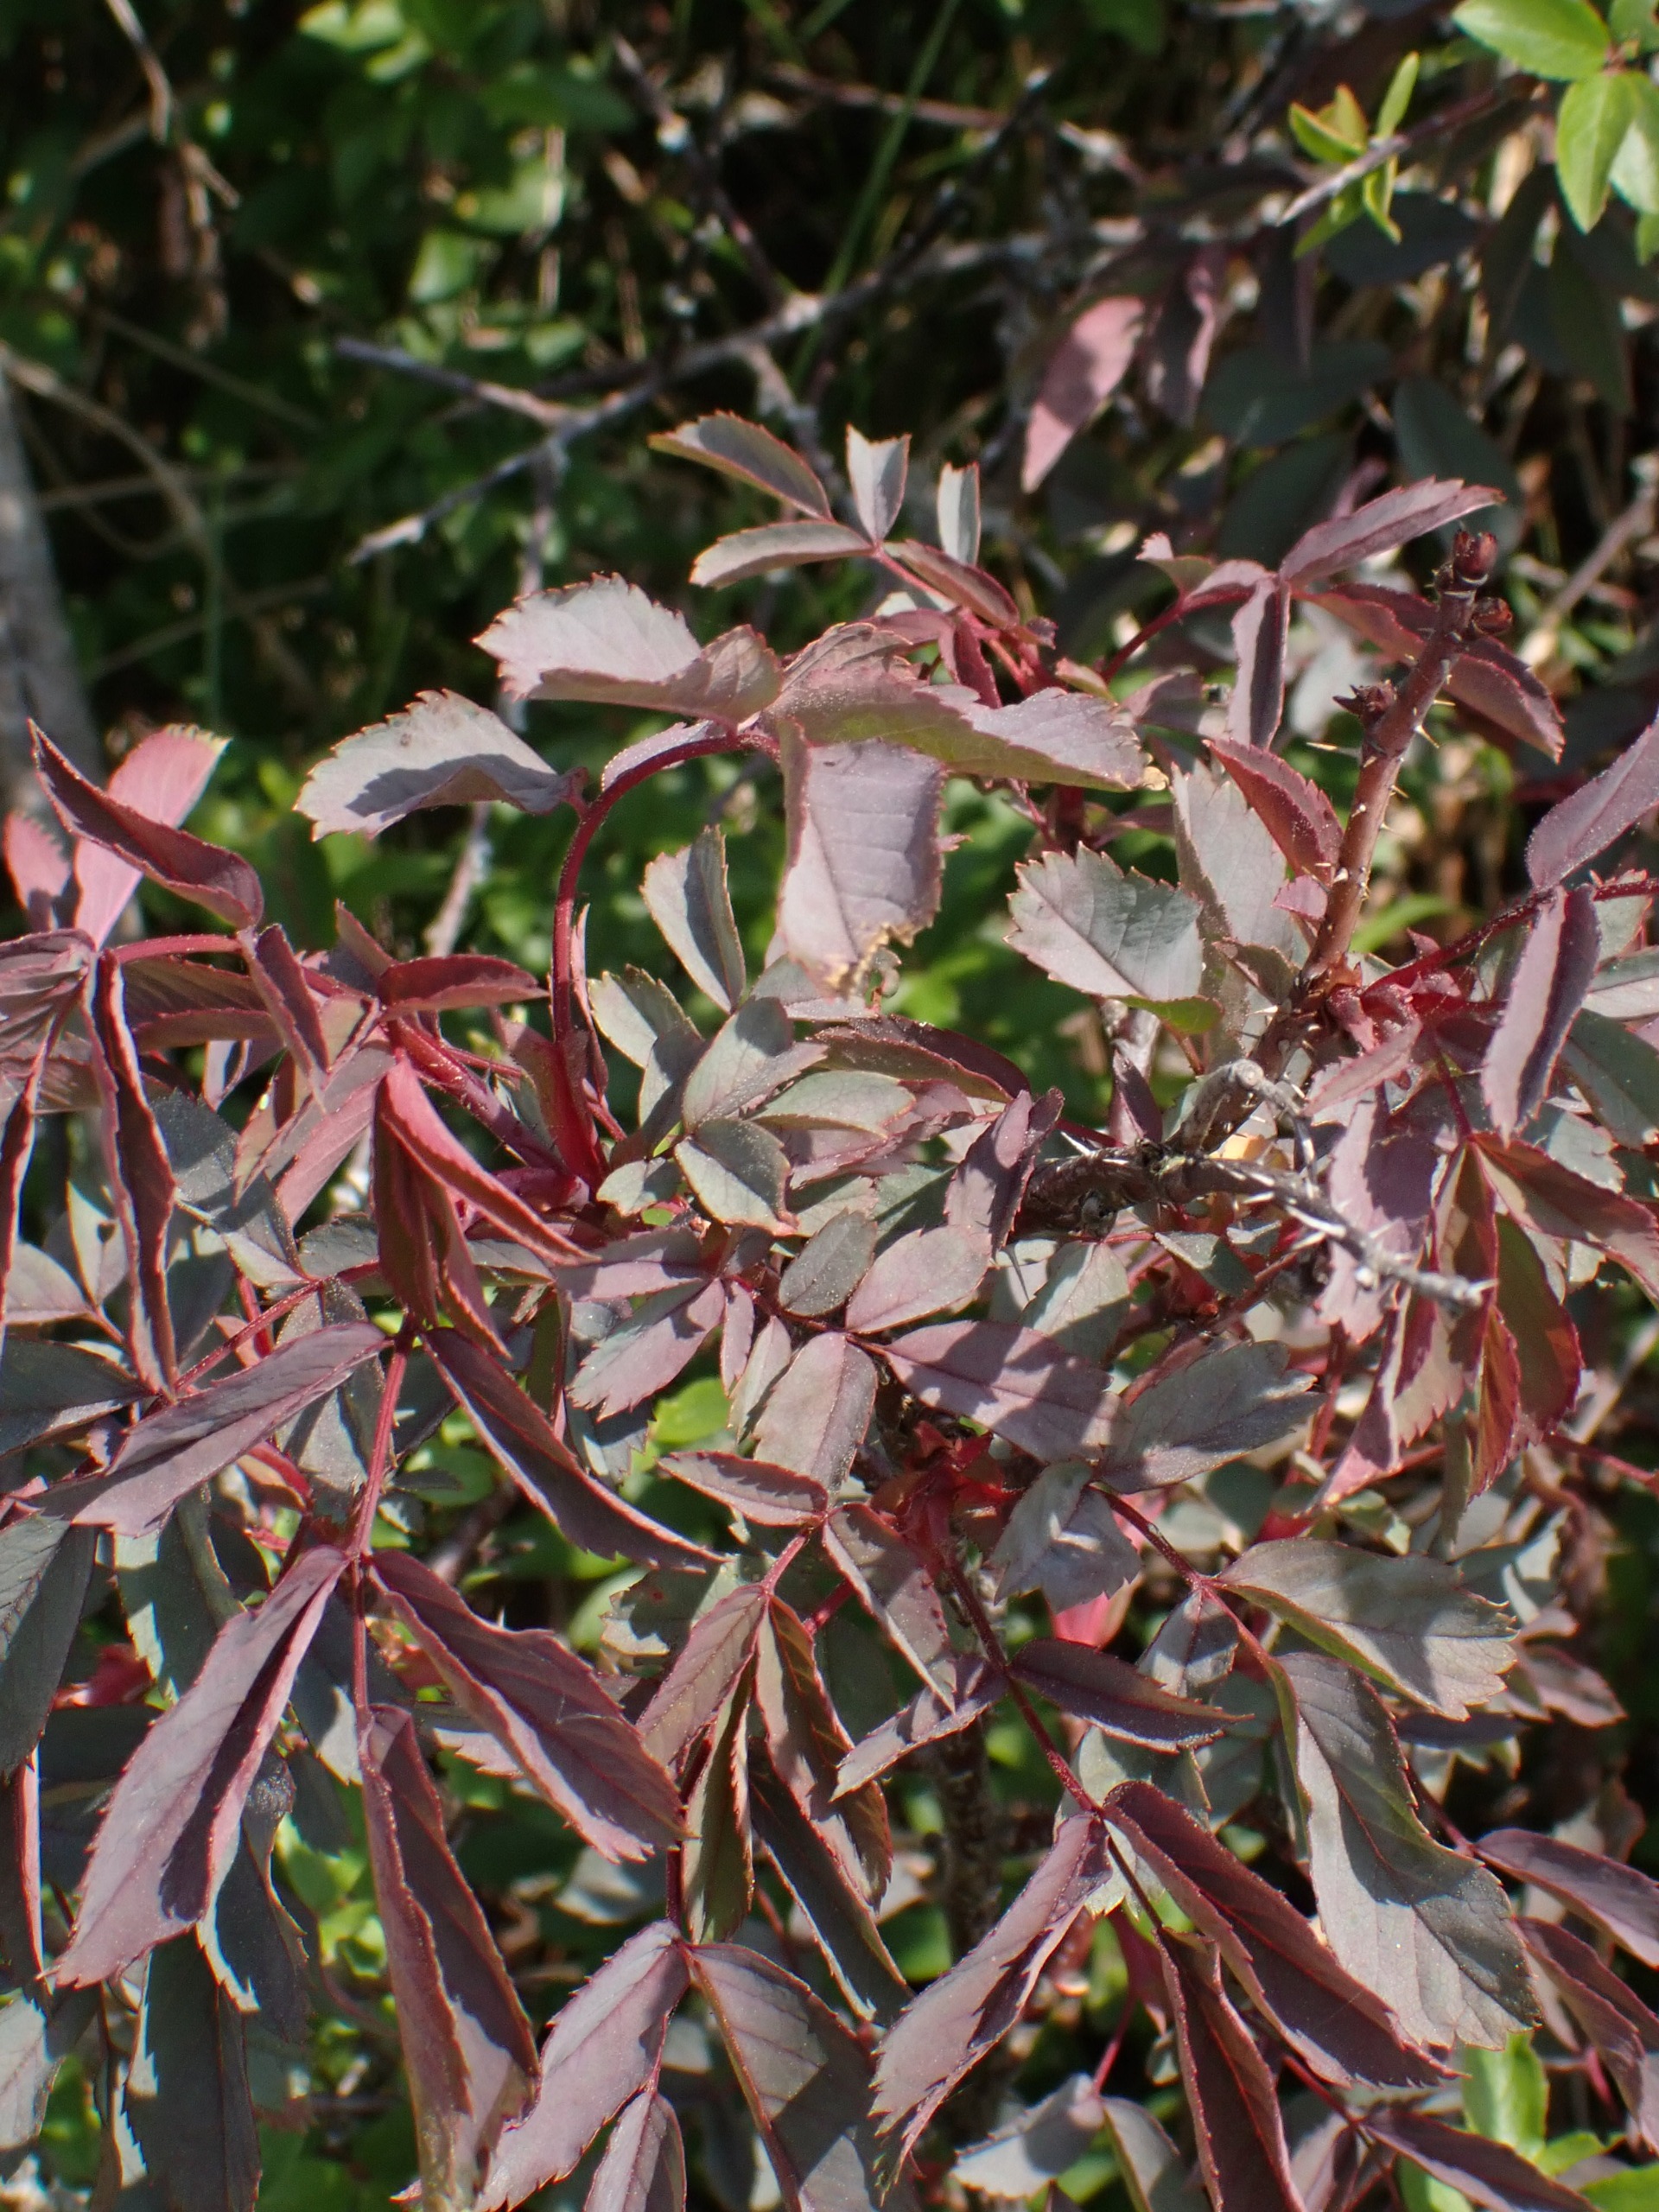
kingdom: Plantae
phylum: Tracheophyta
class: Magnoliopsida
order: Rosales
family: Rosaceae
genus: Rosa
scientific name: Rosa glauca
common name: Kobber-rose
